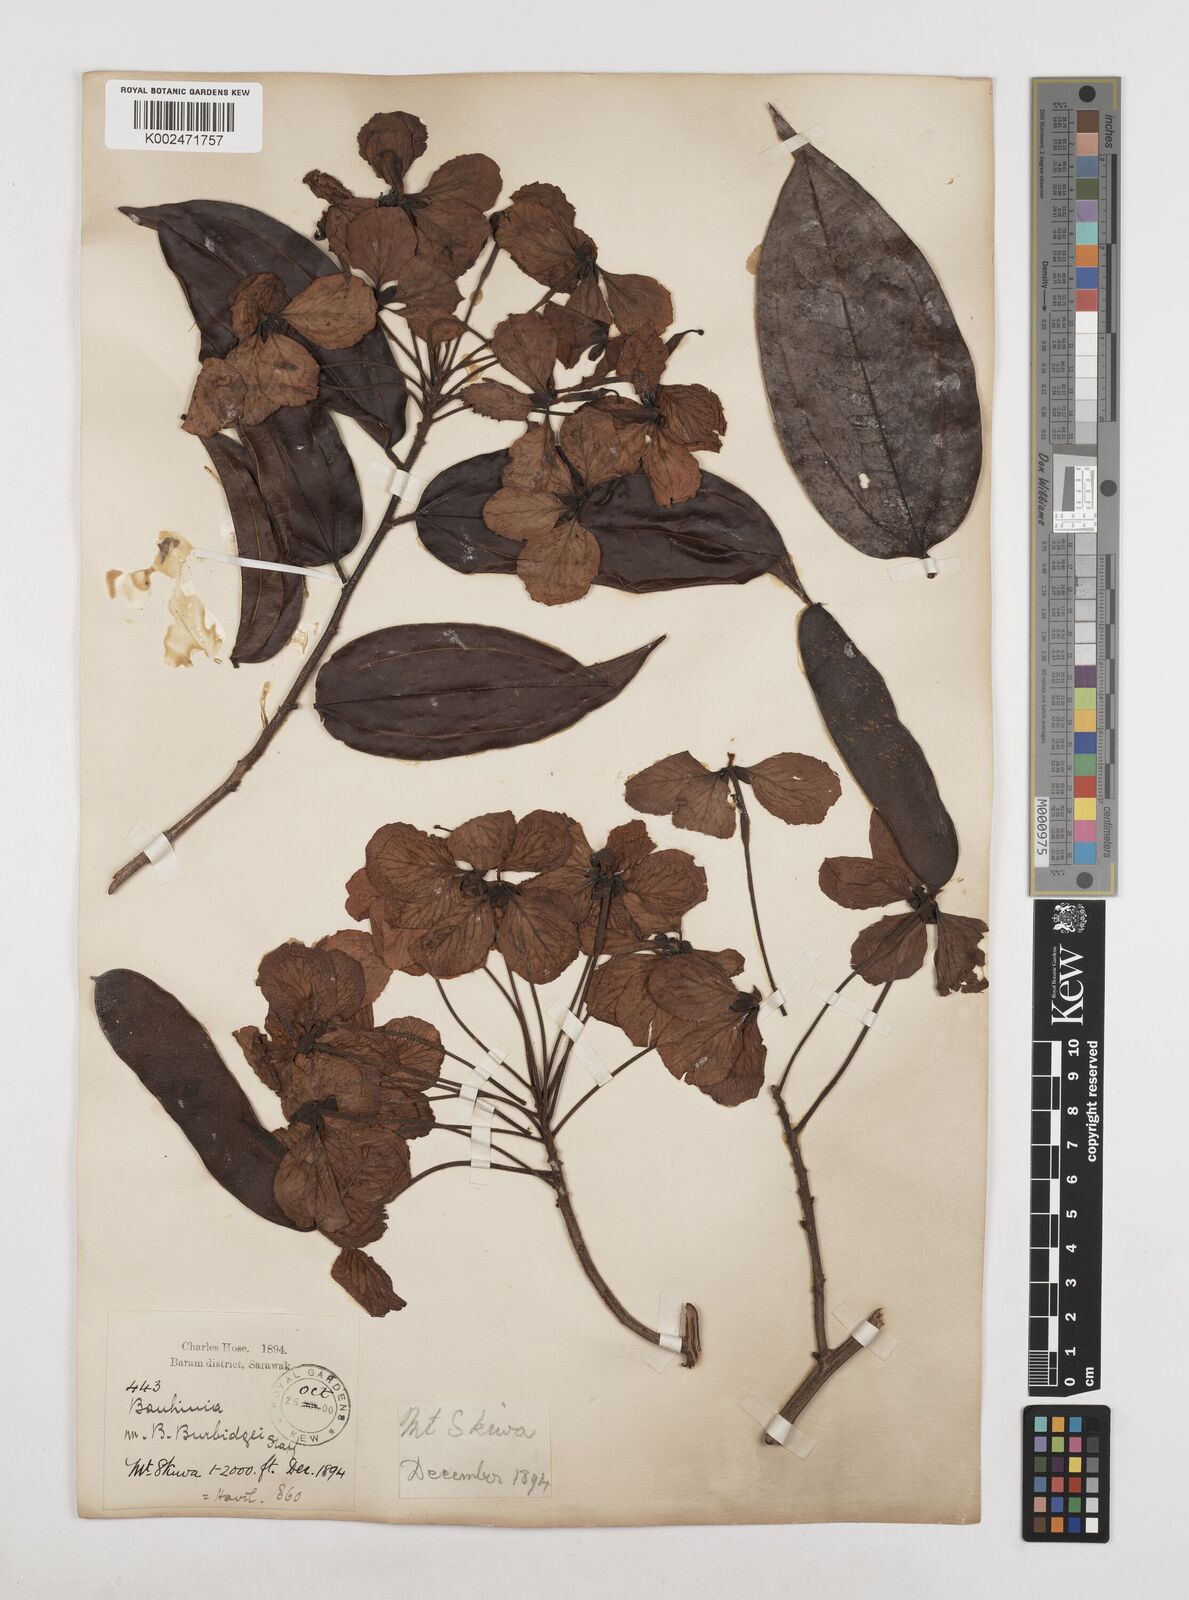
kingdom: Plantae
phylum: Tracheophyta
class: Magnoliopsida
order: Fabales
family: Fabaceae
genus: Phanera
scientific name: Phanera kockiana
